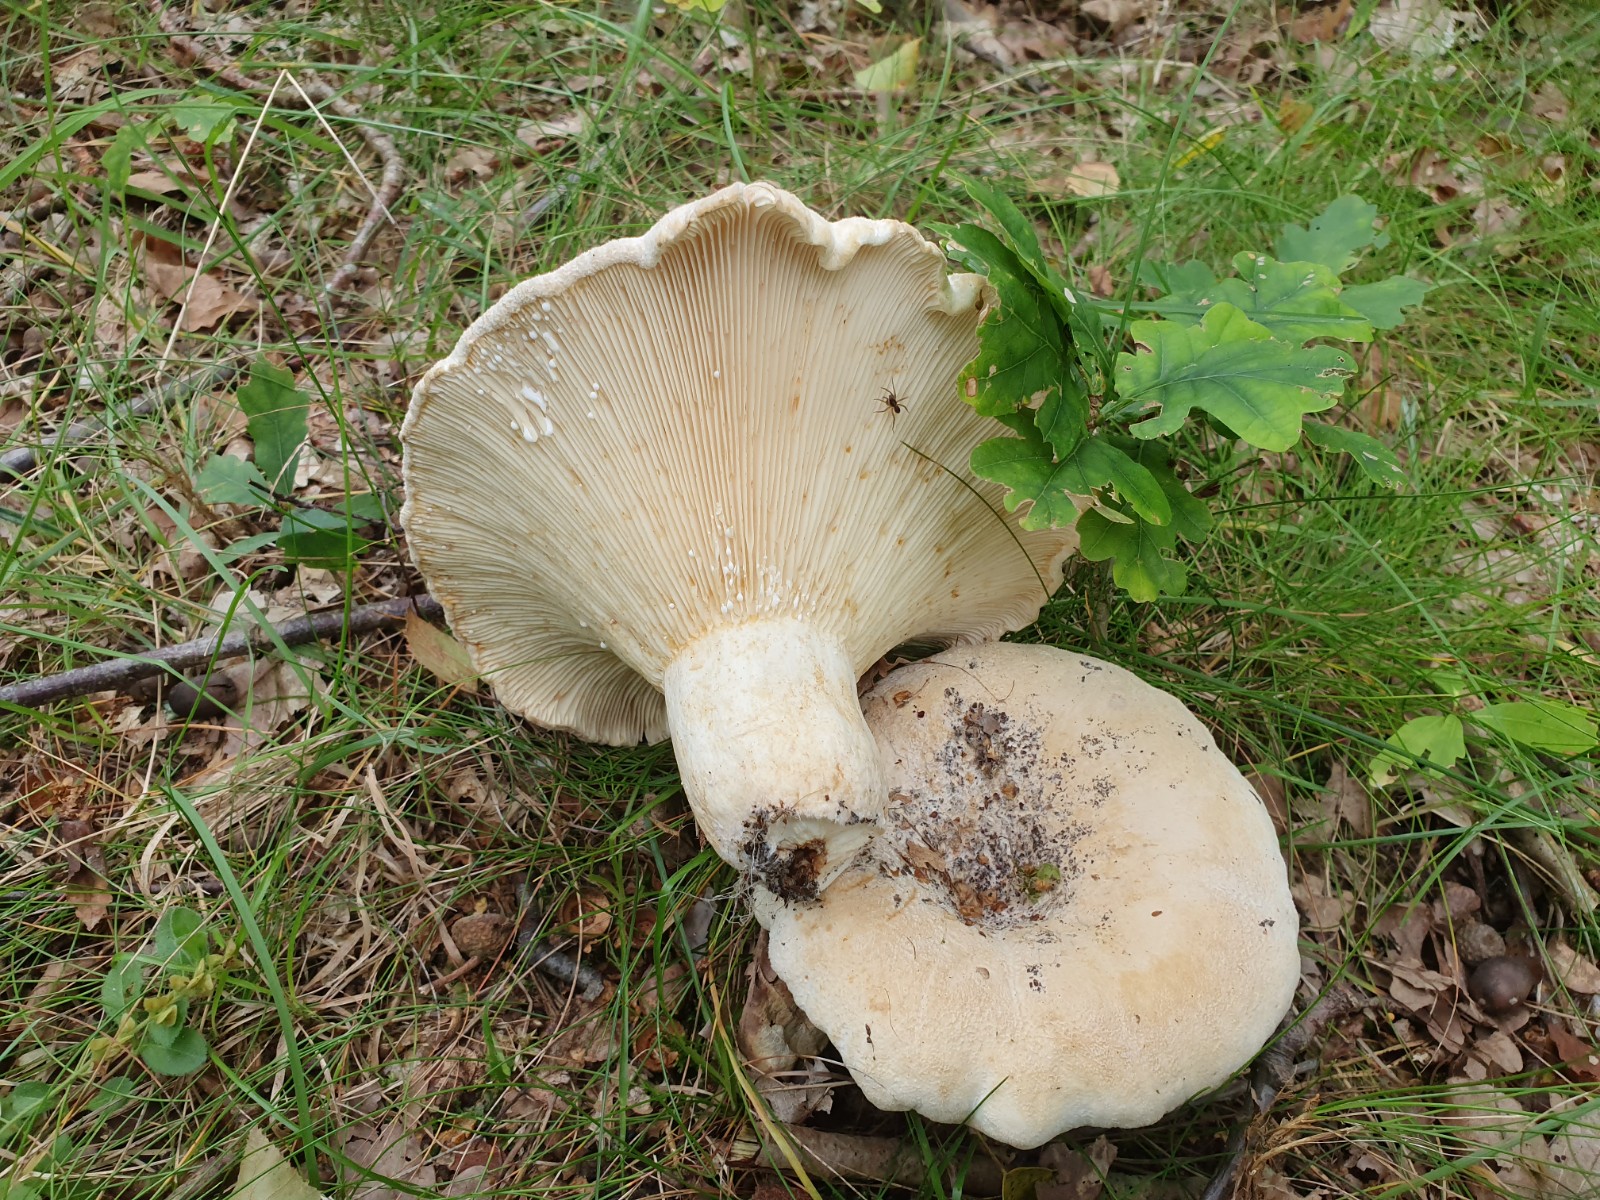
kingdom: Fungi
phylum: Basidiomycota
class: Agaricomycetes
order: Russulales
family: Russulaceae
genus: Lactifluus
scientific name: Lactifluus vellereus
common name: hvidfiltet mælkehat
